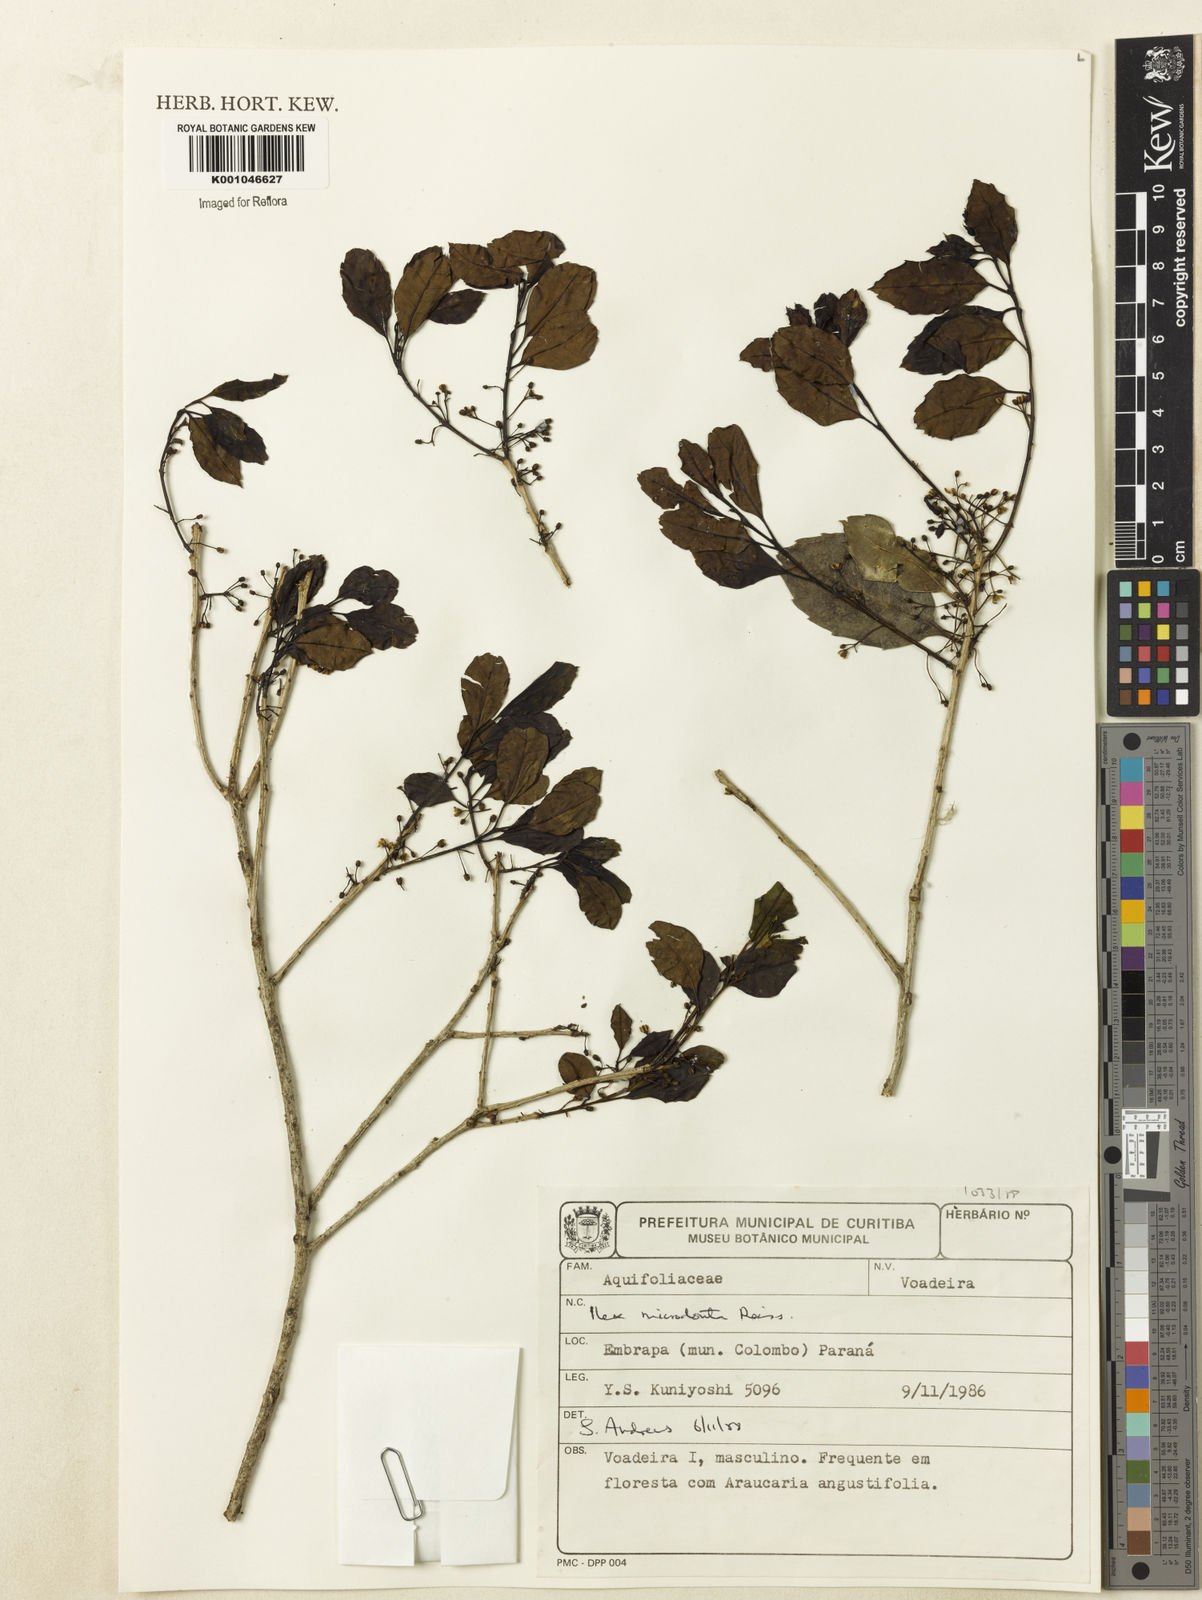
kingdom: Plantae
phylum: Tracheophyta
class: Magnoliopsida
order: Aquifoliales
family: Aquifoliaceae
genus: Ilex
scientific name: Ilex microdonta
